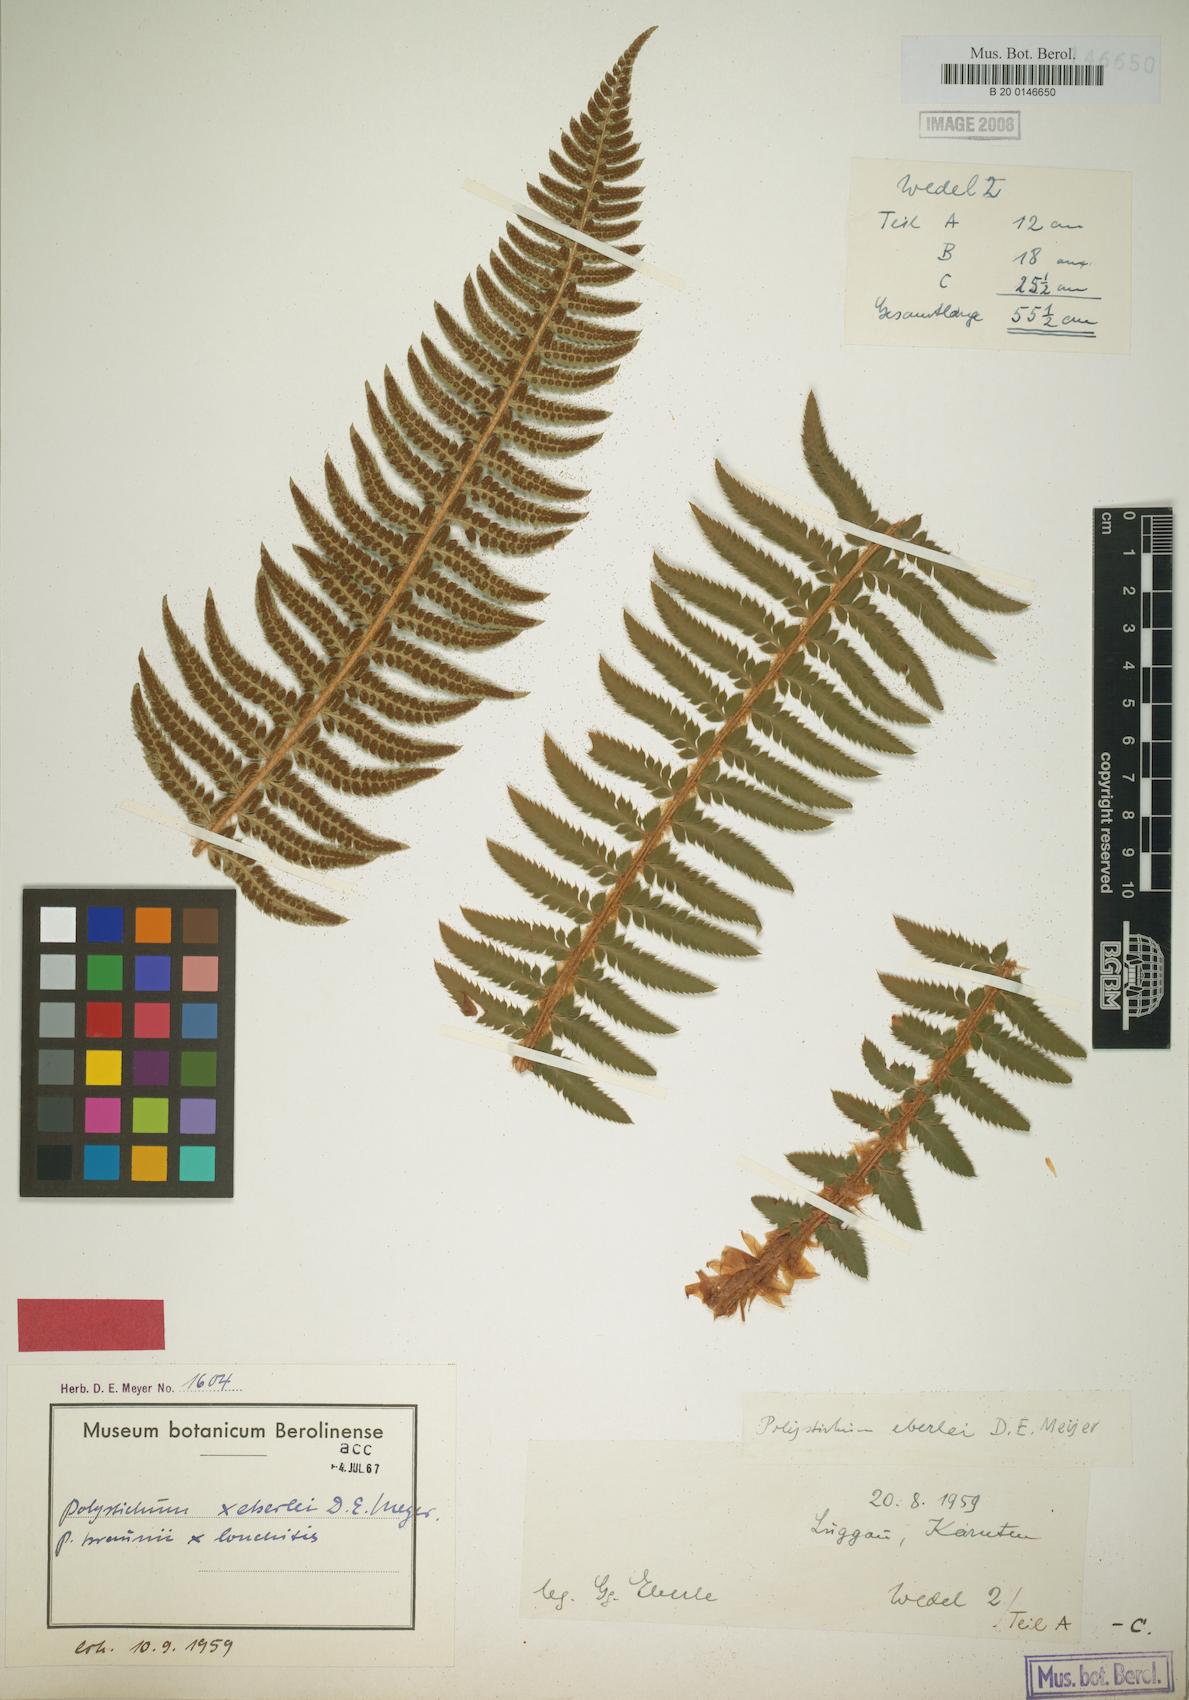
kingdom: Plantae
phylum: Tracheophyta
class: Polypodiopsida
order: Polypodiales
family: Dryopteridaceae
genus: Polystichum
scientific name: Polystichum illyricum
